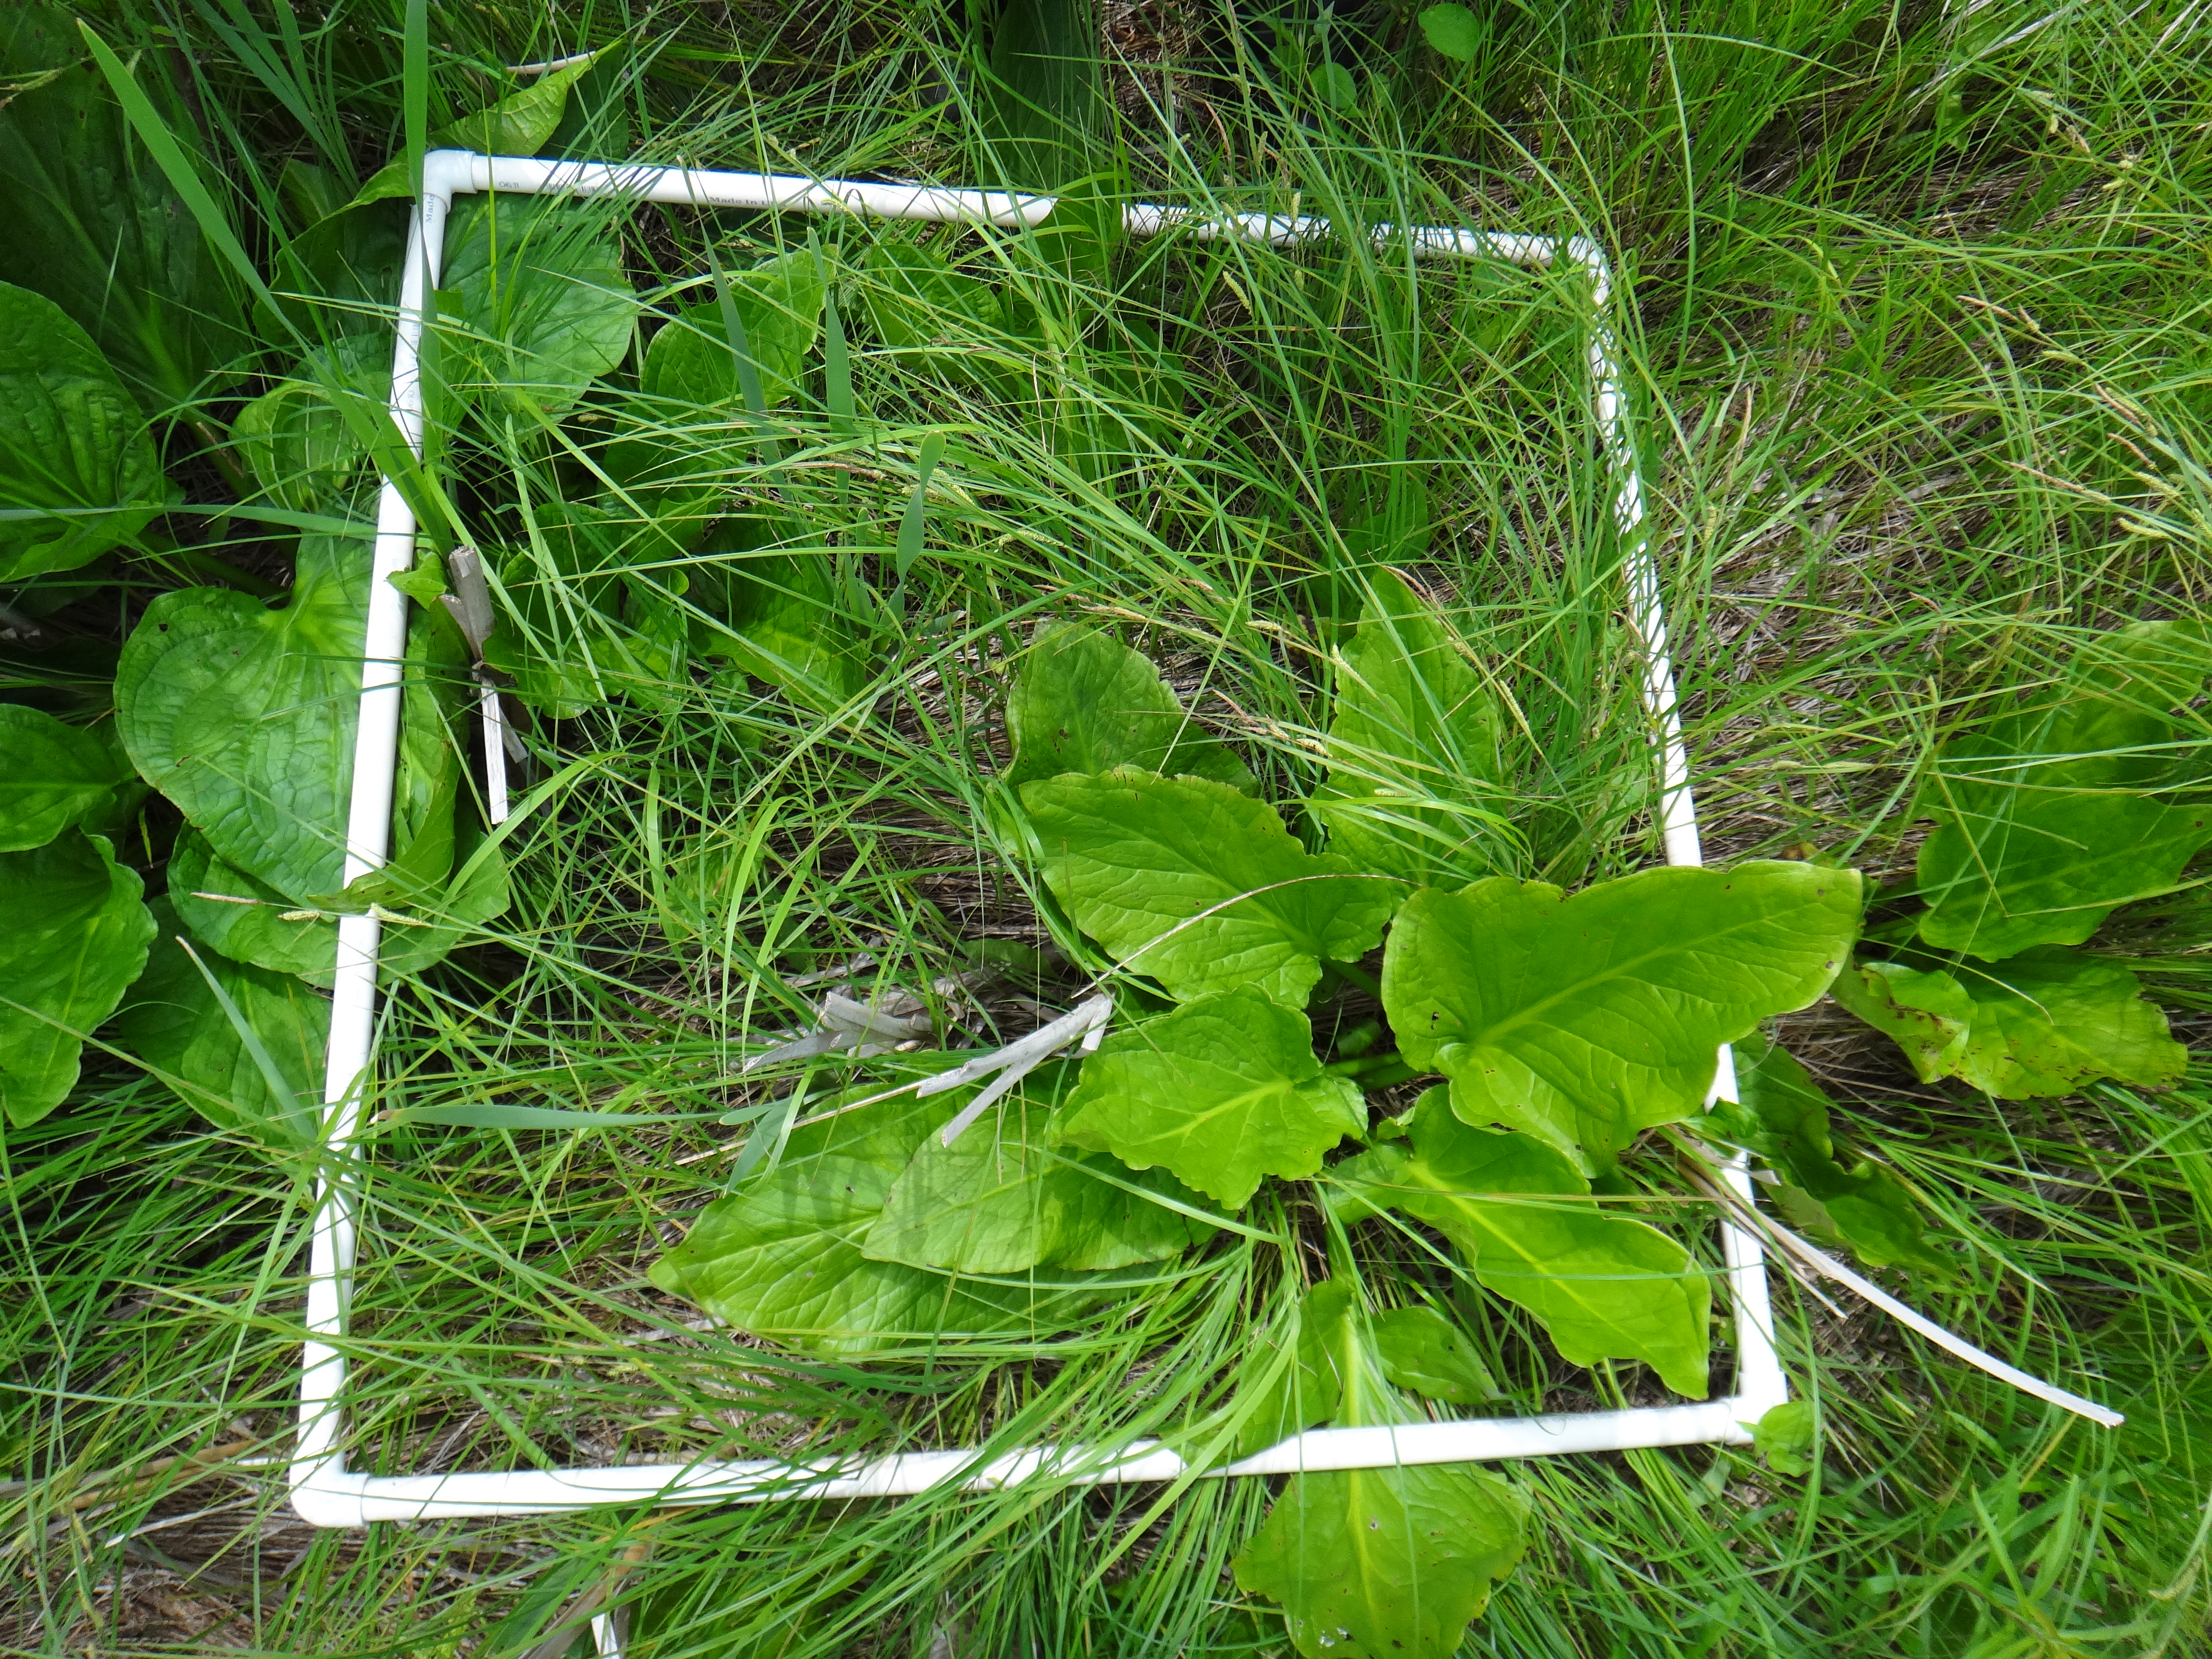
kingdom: Plantae
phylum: Tracheophyta
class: Liliopsida
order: Poales
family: Cyperaceae
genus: Schoenoplectus
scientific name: Schoenoplectus pungens
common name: Sharp club-rush
